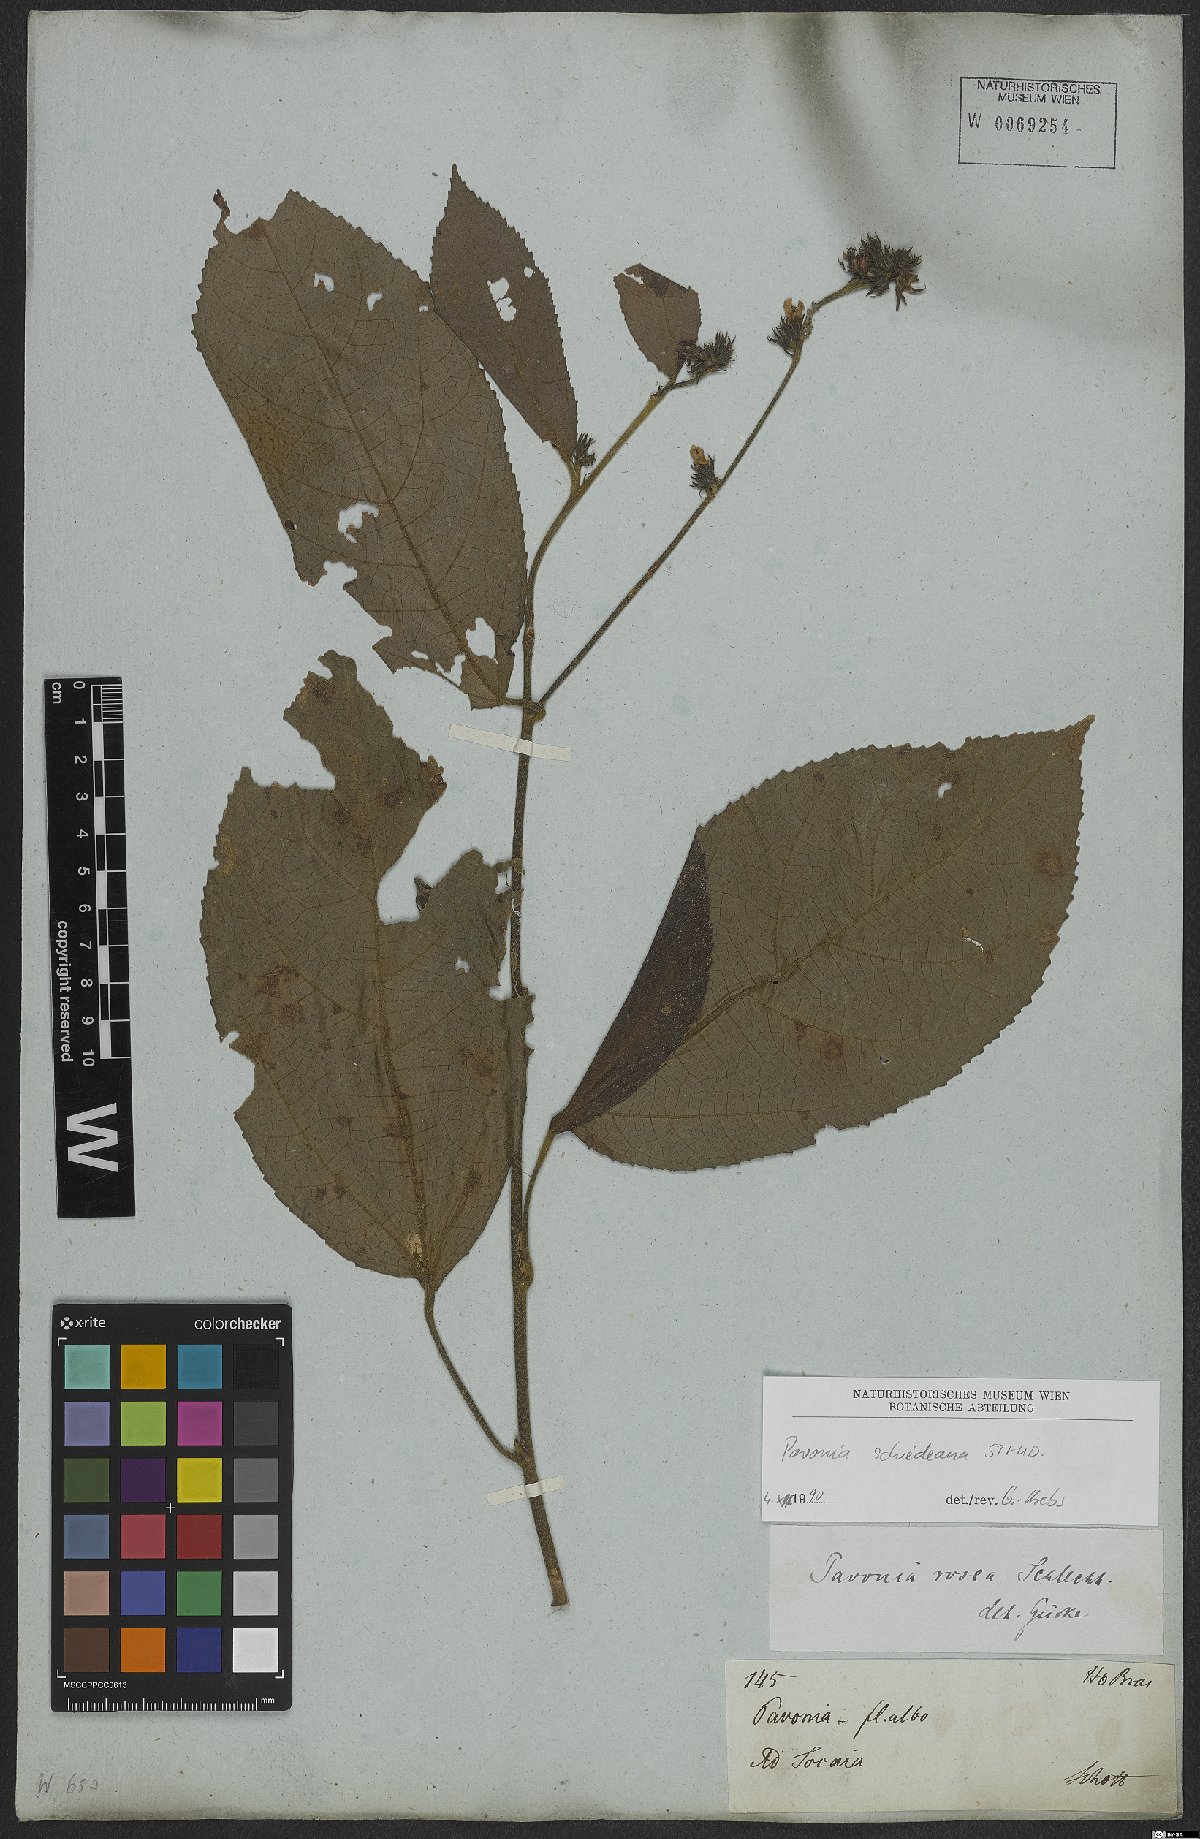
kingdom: Plantae
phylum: Tracheophyta
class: Magnoliopsida
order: Malvales
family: Malvaceae
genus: Pavonia
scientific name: Pavonia schiedeana
